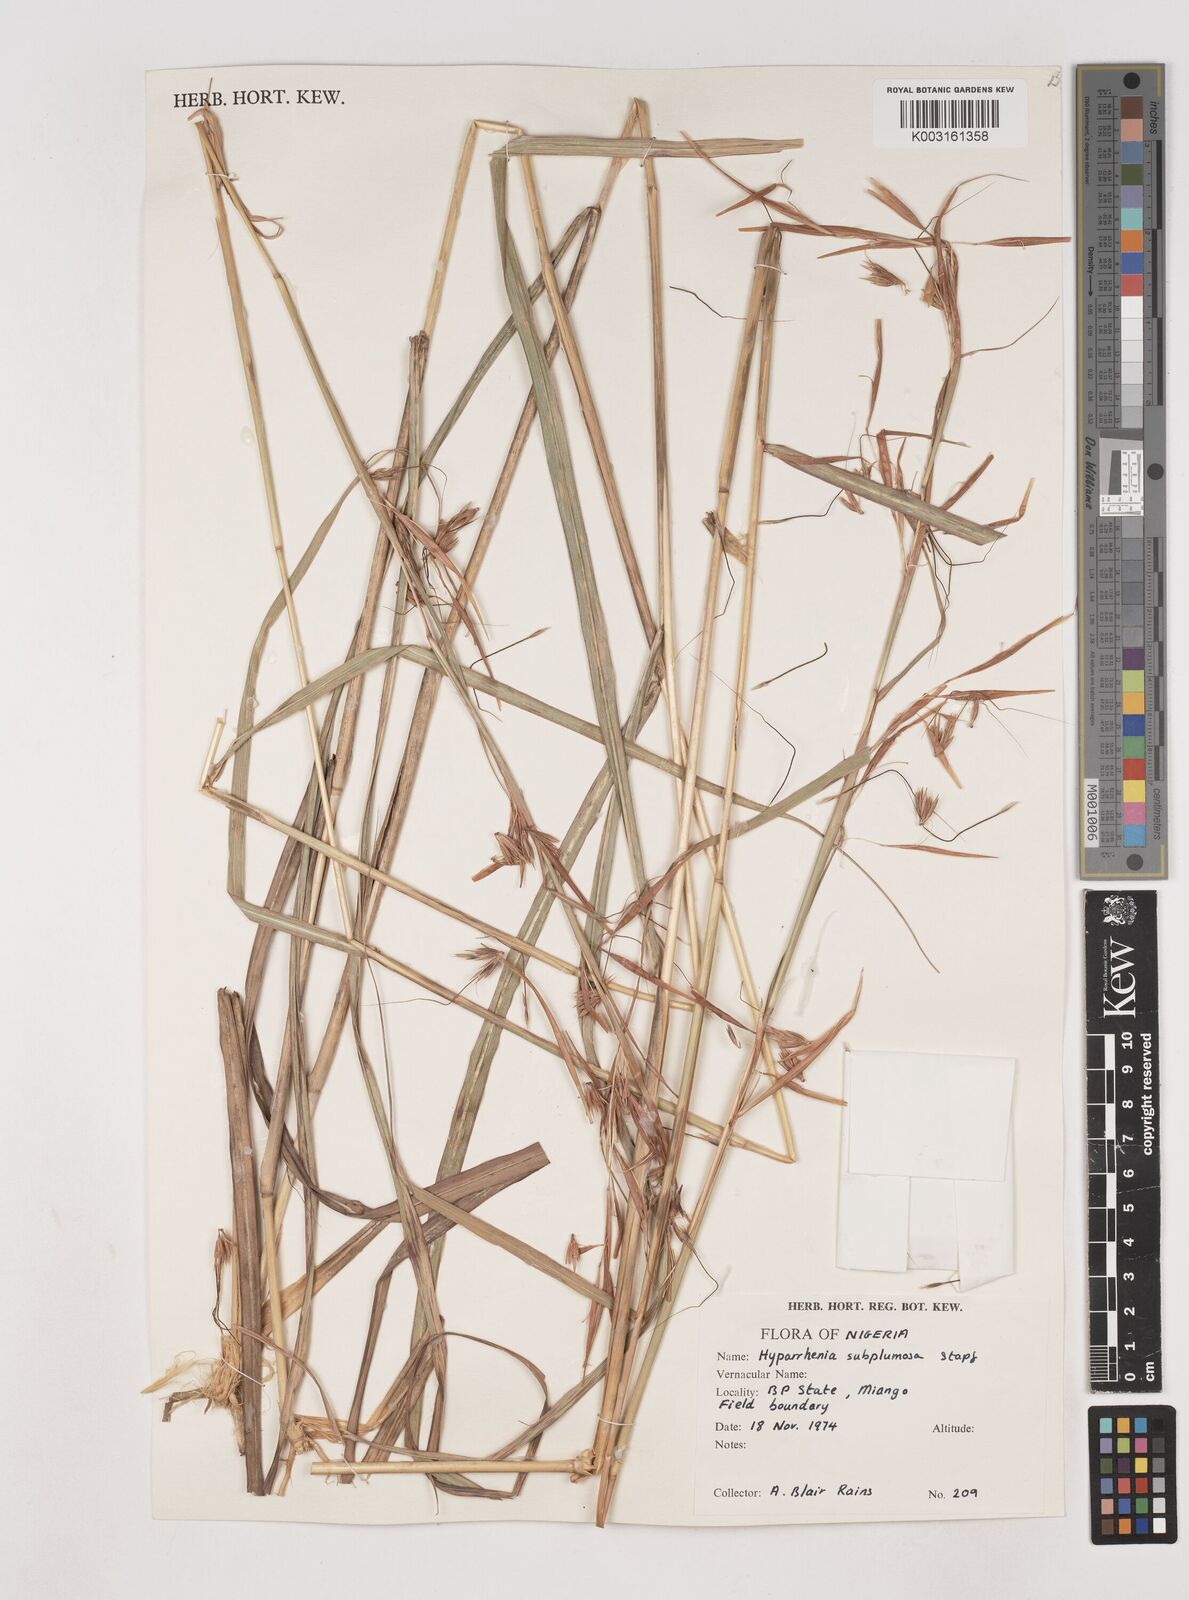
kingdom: Plantae
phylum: Tracheophyta
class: Liliopsida
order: Poales
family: Poaceae
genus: Hyparrhenia
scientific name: Hyparrhenia subplumosa
